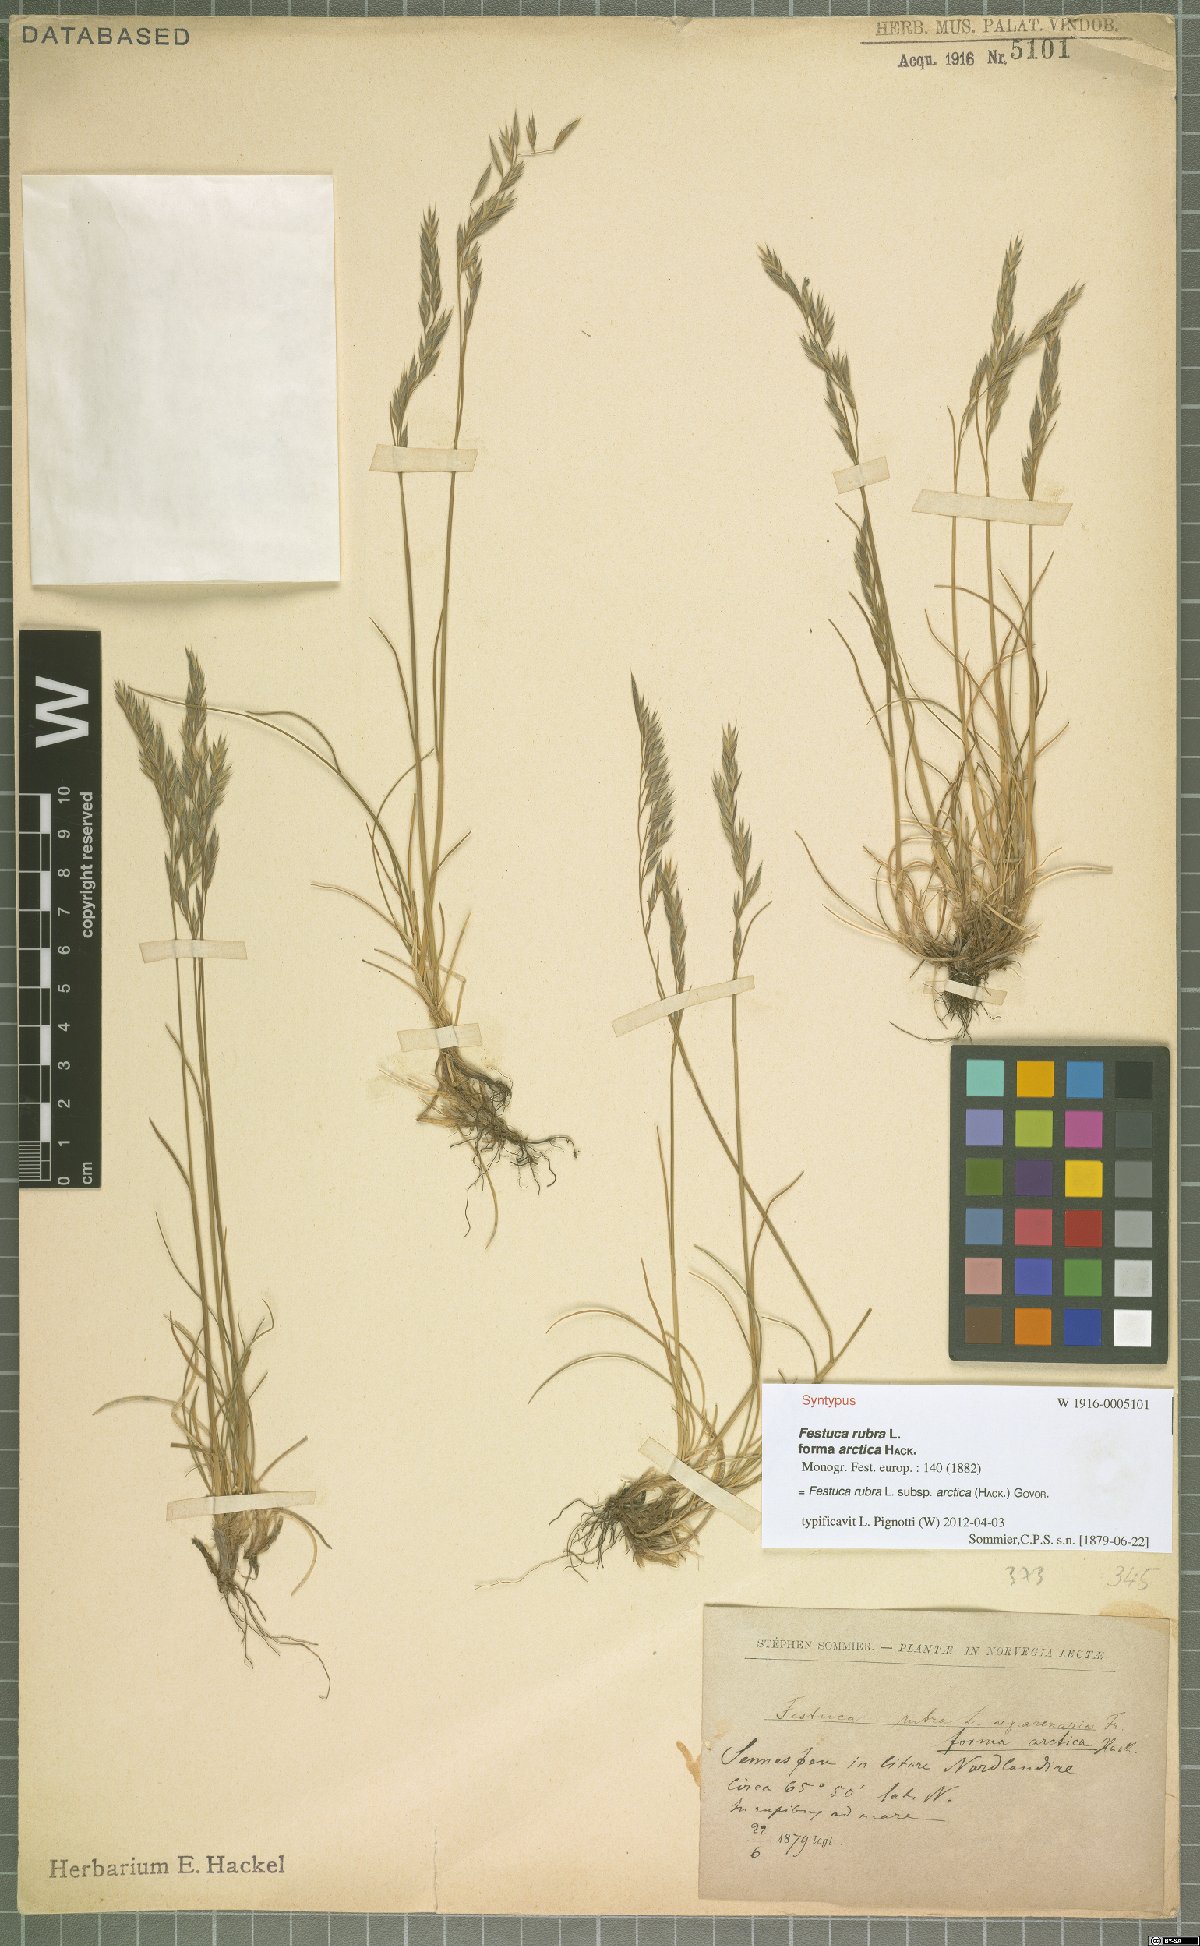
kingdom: Plantae
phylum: Tracheophyta
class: Liliopsida
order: Poales
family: Poaceae
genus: Festuca
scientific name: Festuca richardsonii
